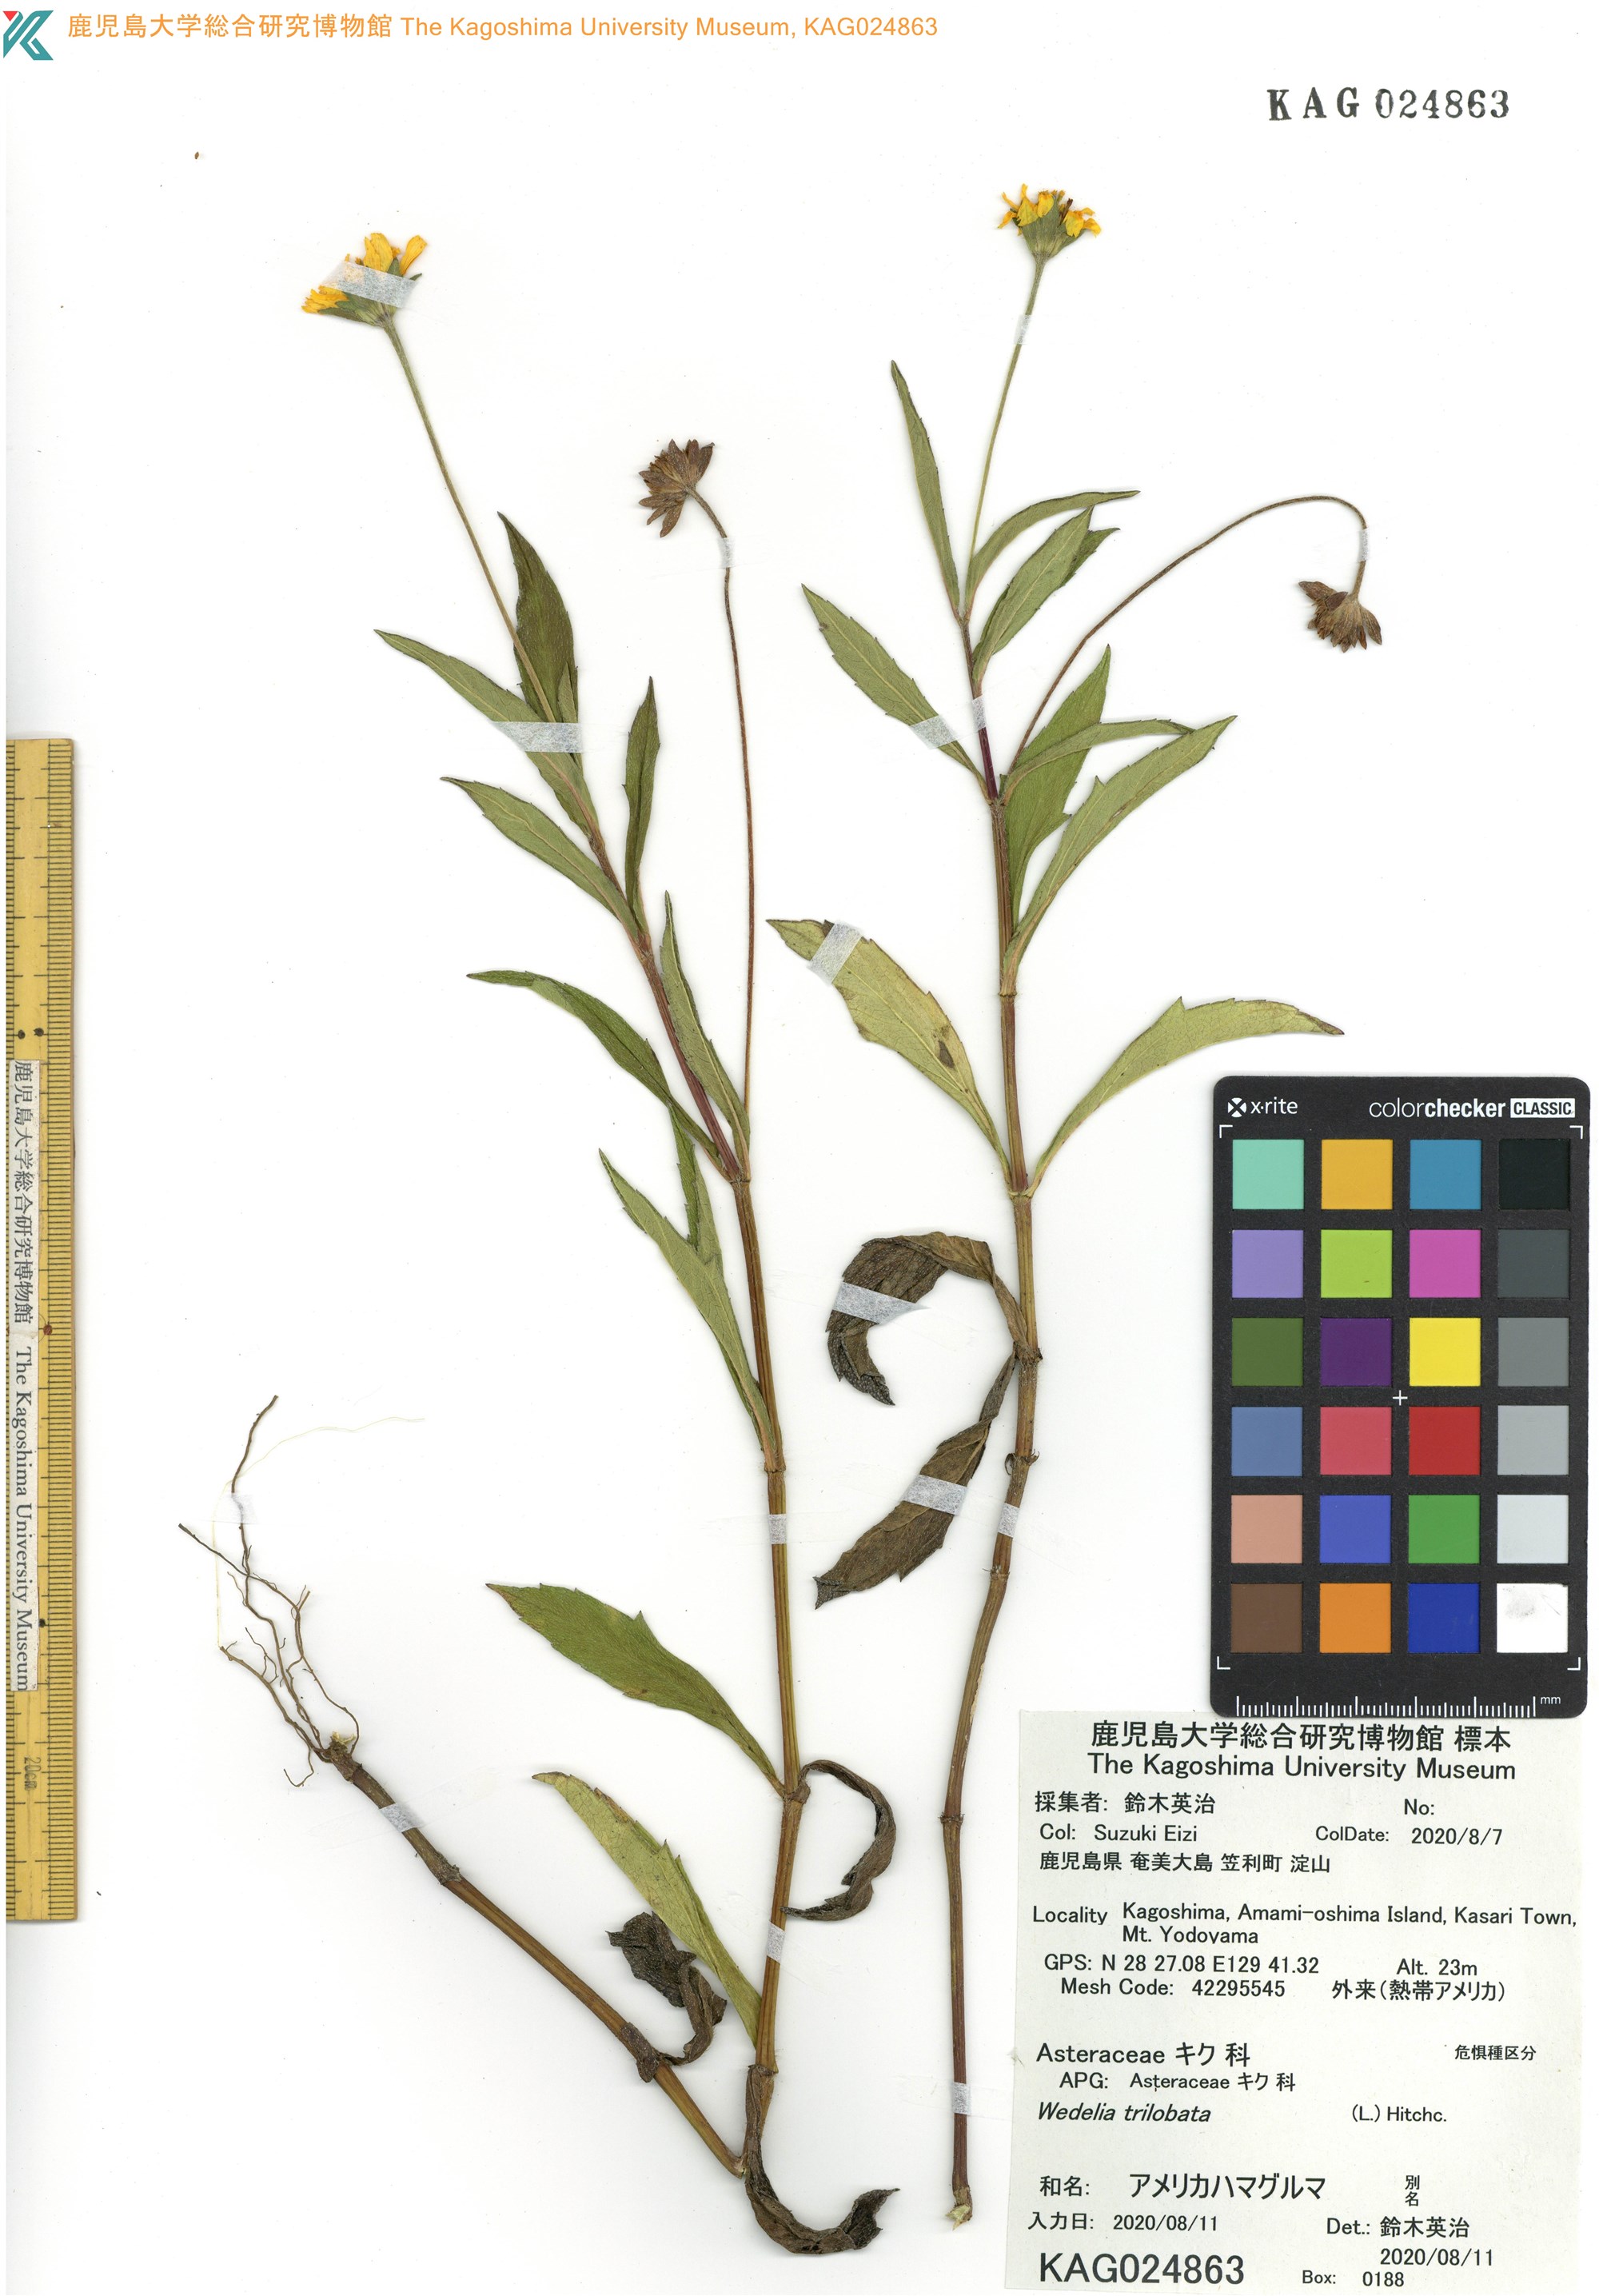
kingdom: Plantae
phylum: Tracheophyta
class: Magnoliopsida
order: Asterales
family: Asteraceae
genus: Wedelia
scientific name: Wedelia trilobata
